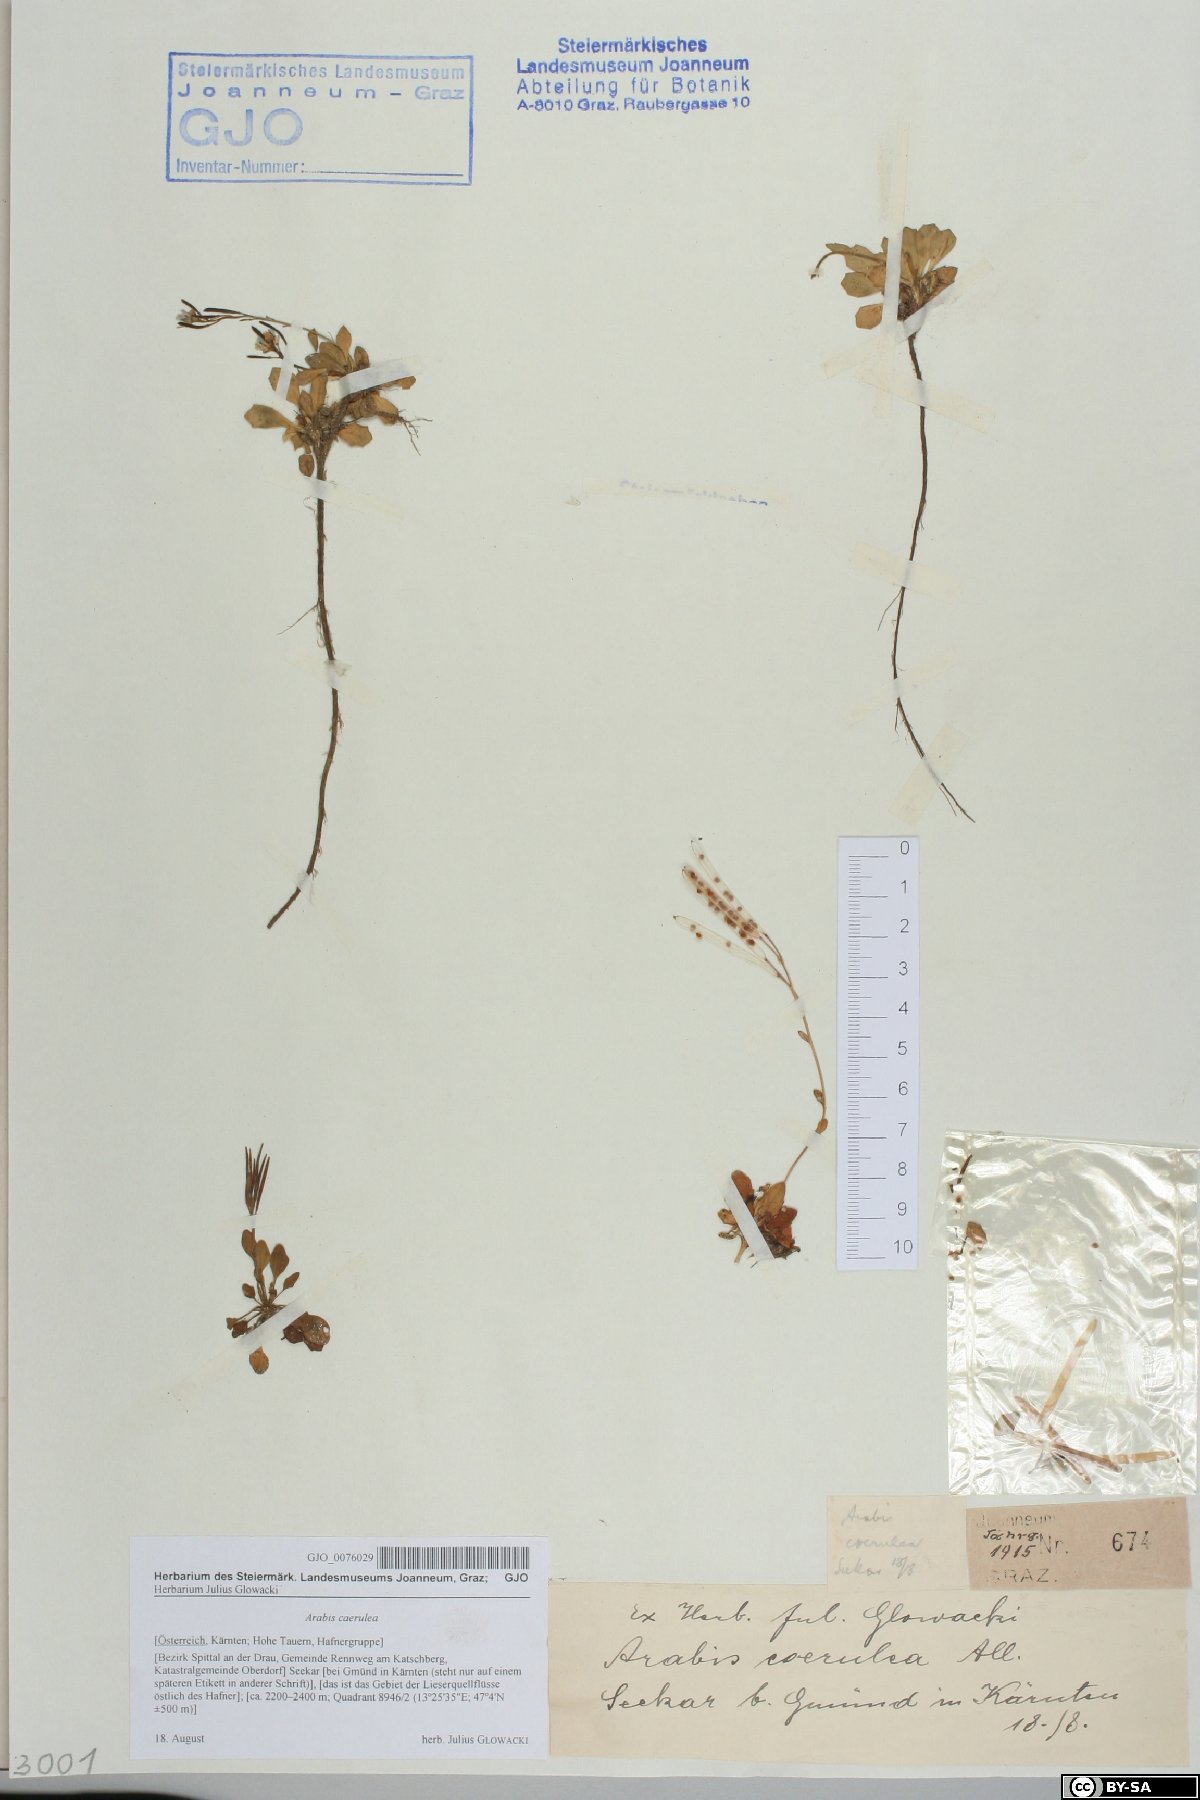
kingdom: Plantae
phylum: Tracheophyta
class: Magnoliopsida
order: Brassicales
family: Brassicaceae
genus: Arabis
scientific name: Arabis caerulea
